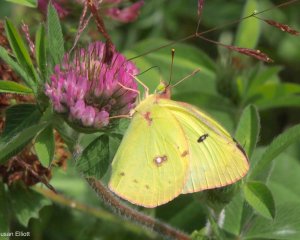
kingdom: Animalia
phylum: Arthropoda
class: Insecta
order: Lepidoptera
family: Pieridae
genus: Colias
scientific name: Colias philodice
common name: Clouded Sulphur
